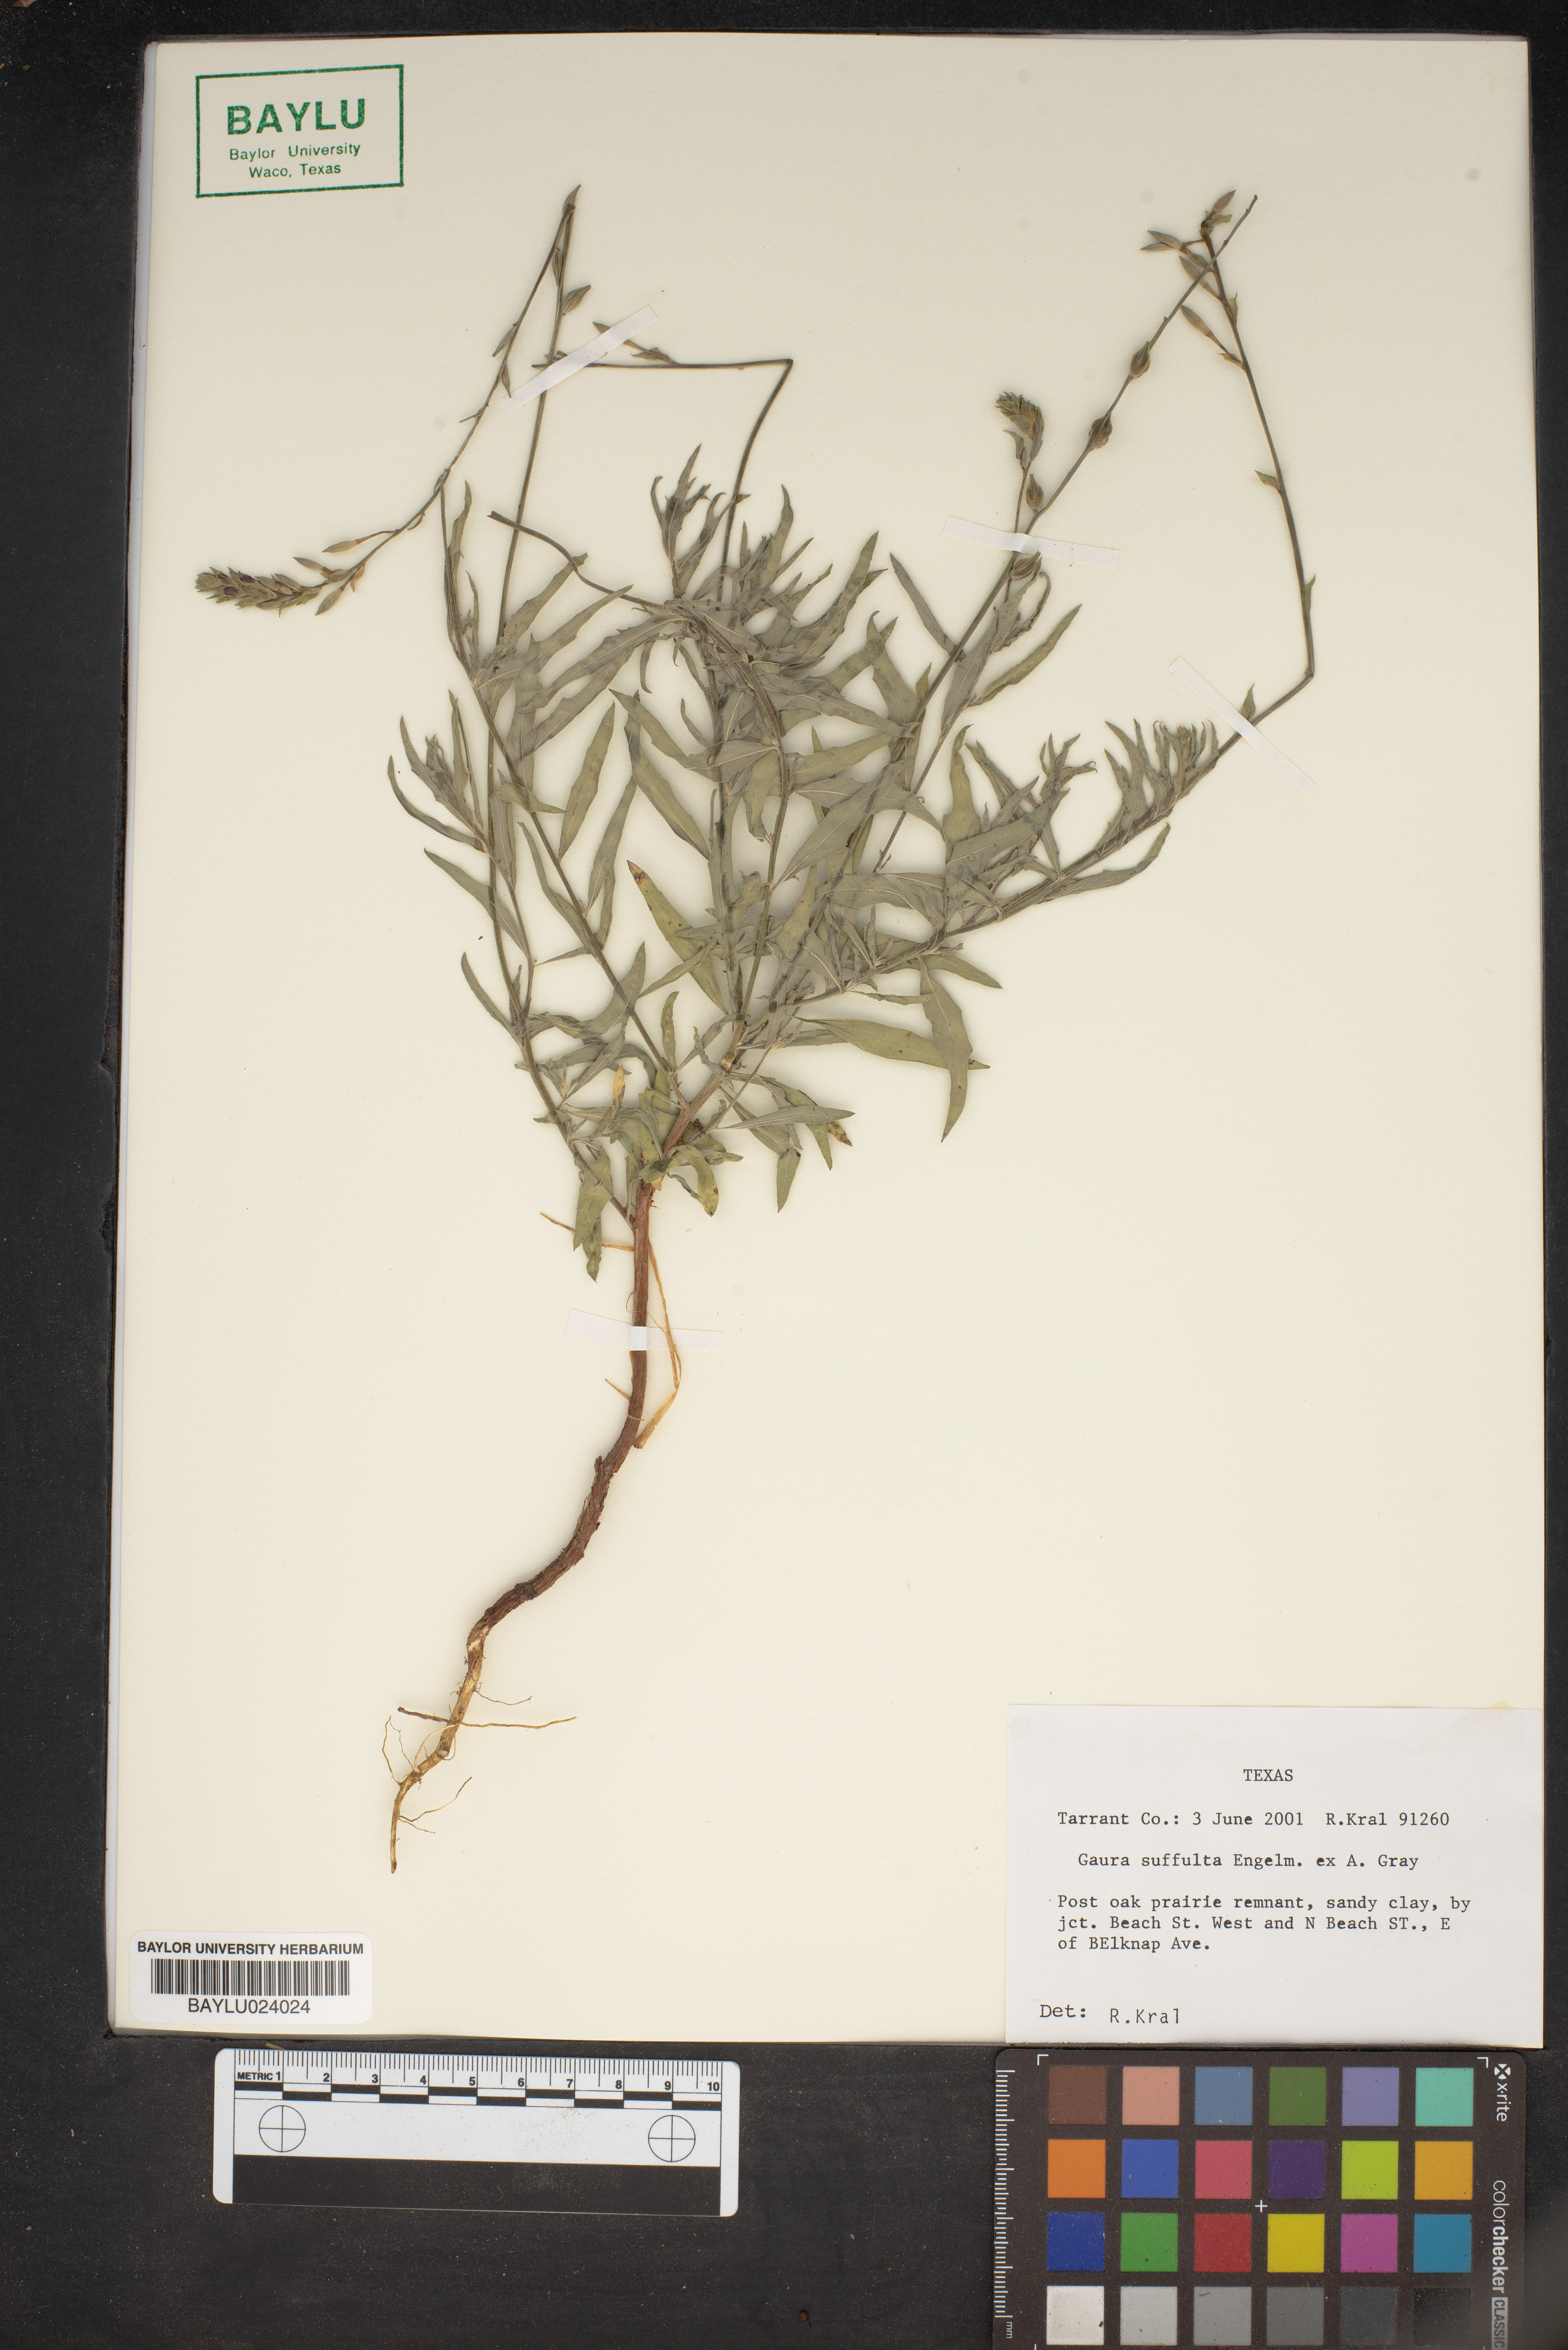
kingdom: Plantae
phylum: Tracheophyta
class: Magnoliopsida
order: Myrtales
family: Onagraceae
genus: Oenothera
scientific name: Oenothera Gaura suffulta
